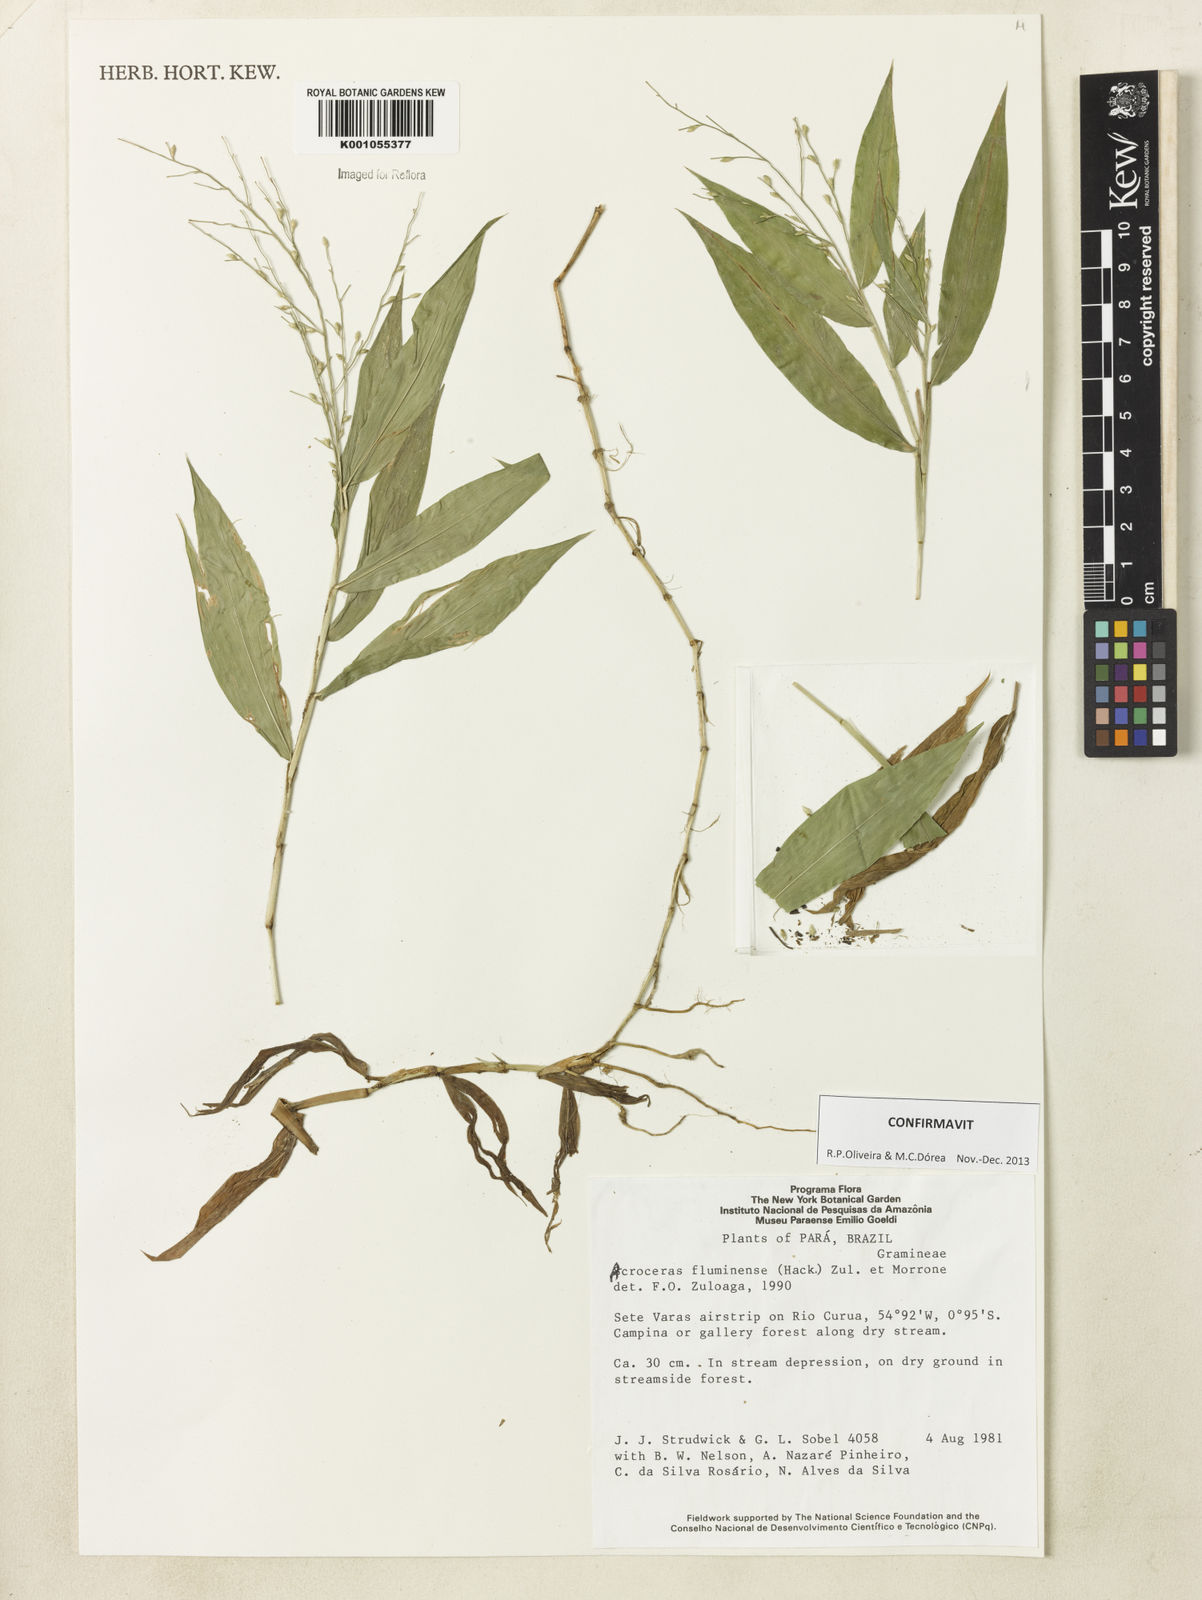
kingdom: Plantae
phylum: Tracheophyta
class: Liliopsida
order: Poales
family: Poaceae
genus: Acroceras
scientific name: Acroceras fluminense
